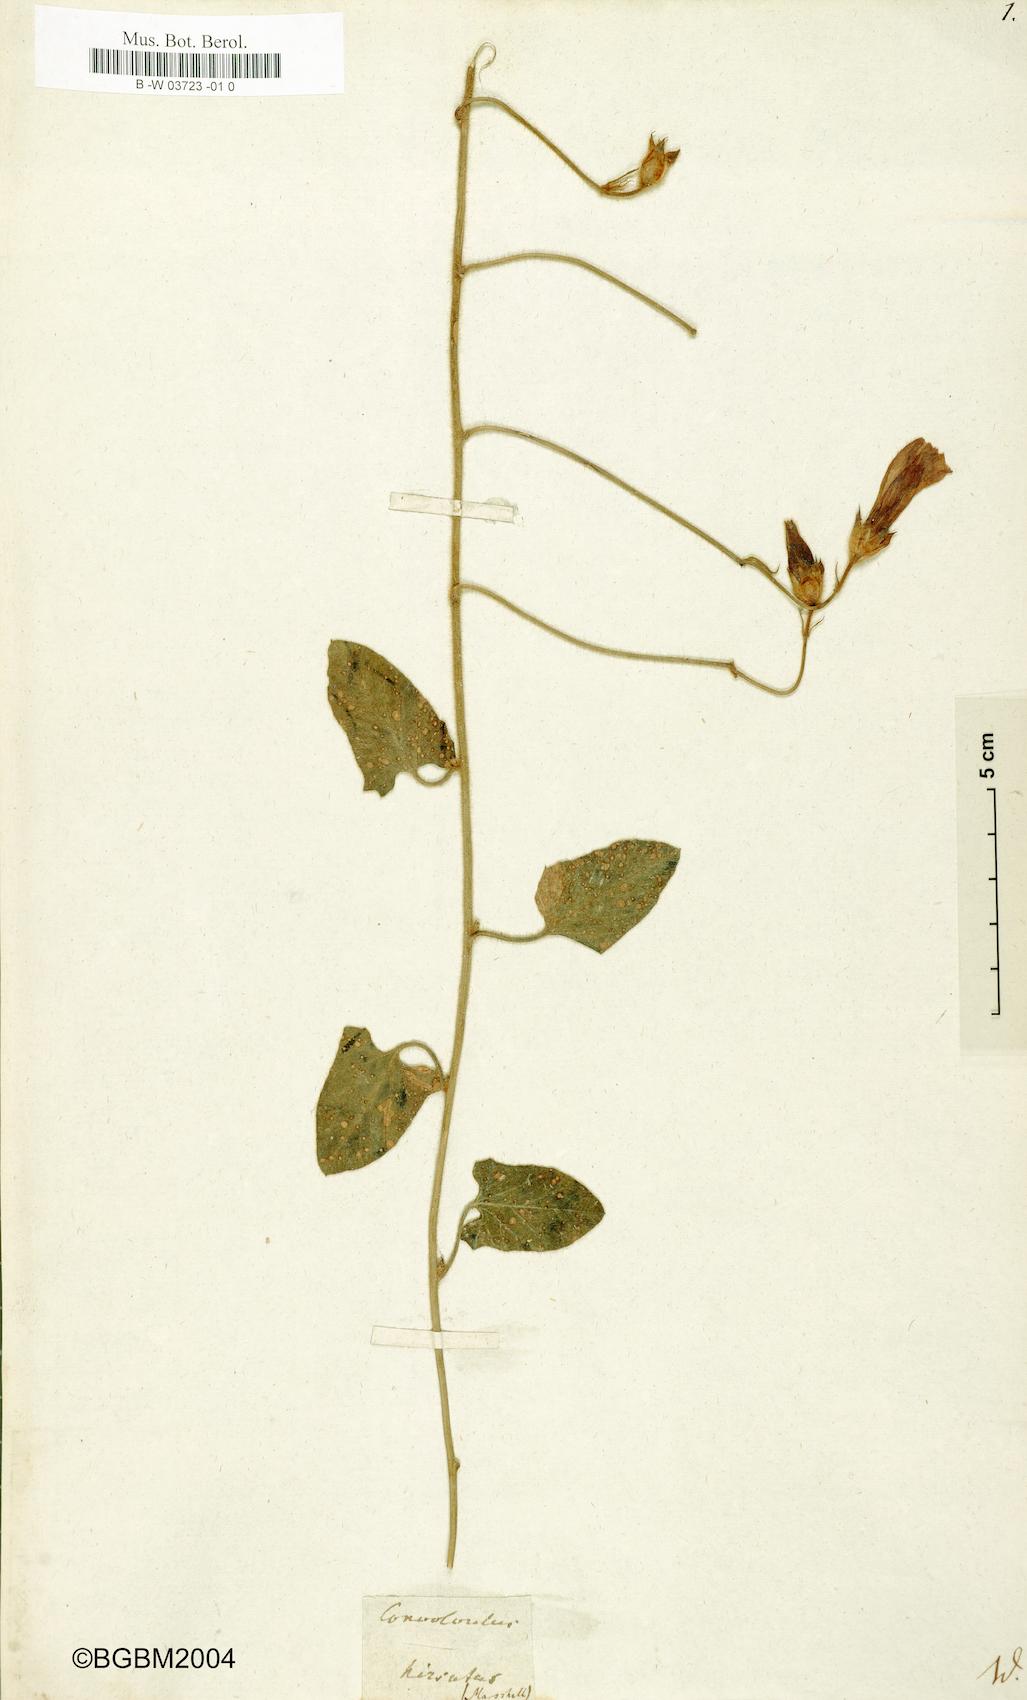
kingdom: Plantae
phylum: Tracheophyta
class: Magnoliopsida
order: Solanales
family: Convolvulaceae
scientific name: Convolvulaceae
